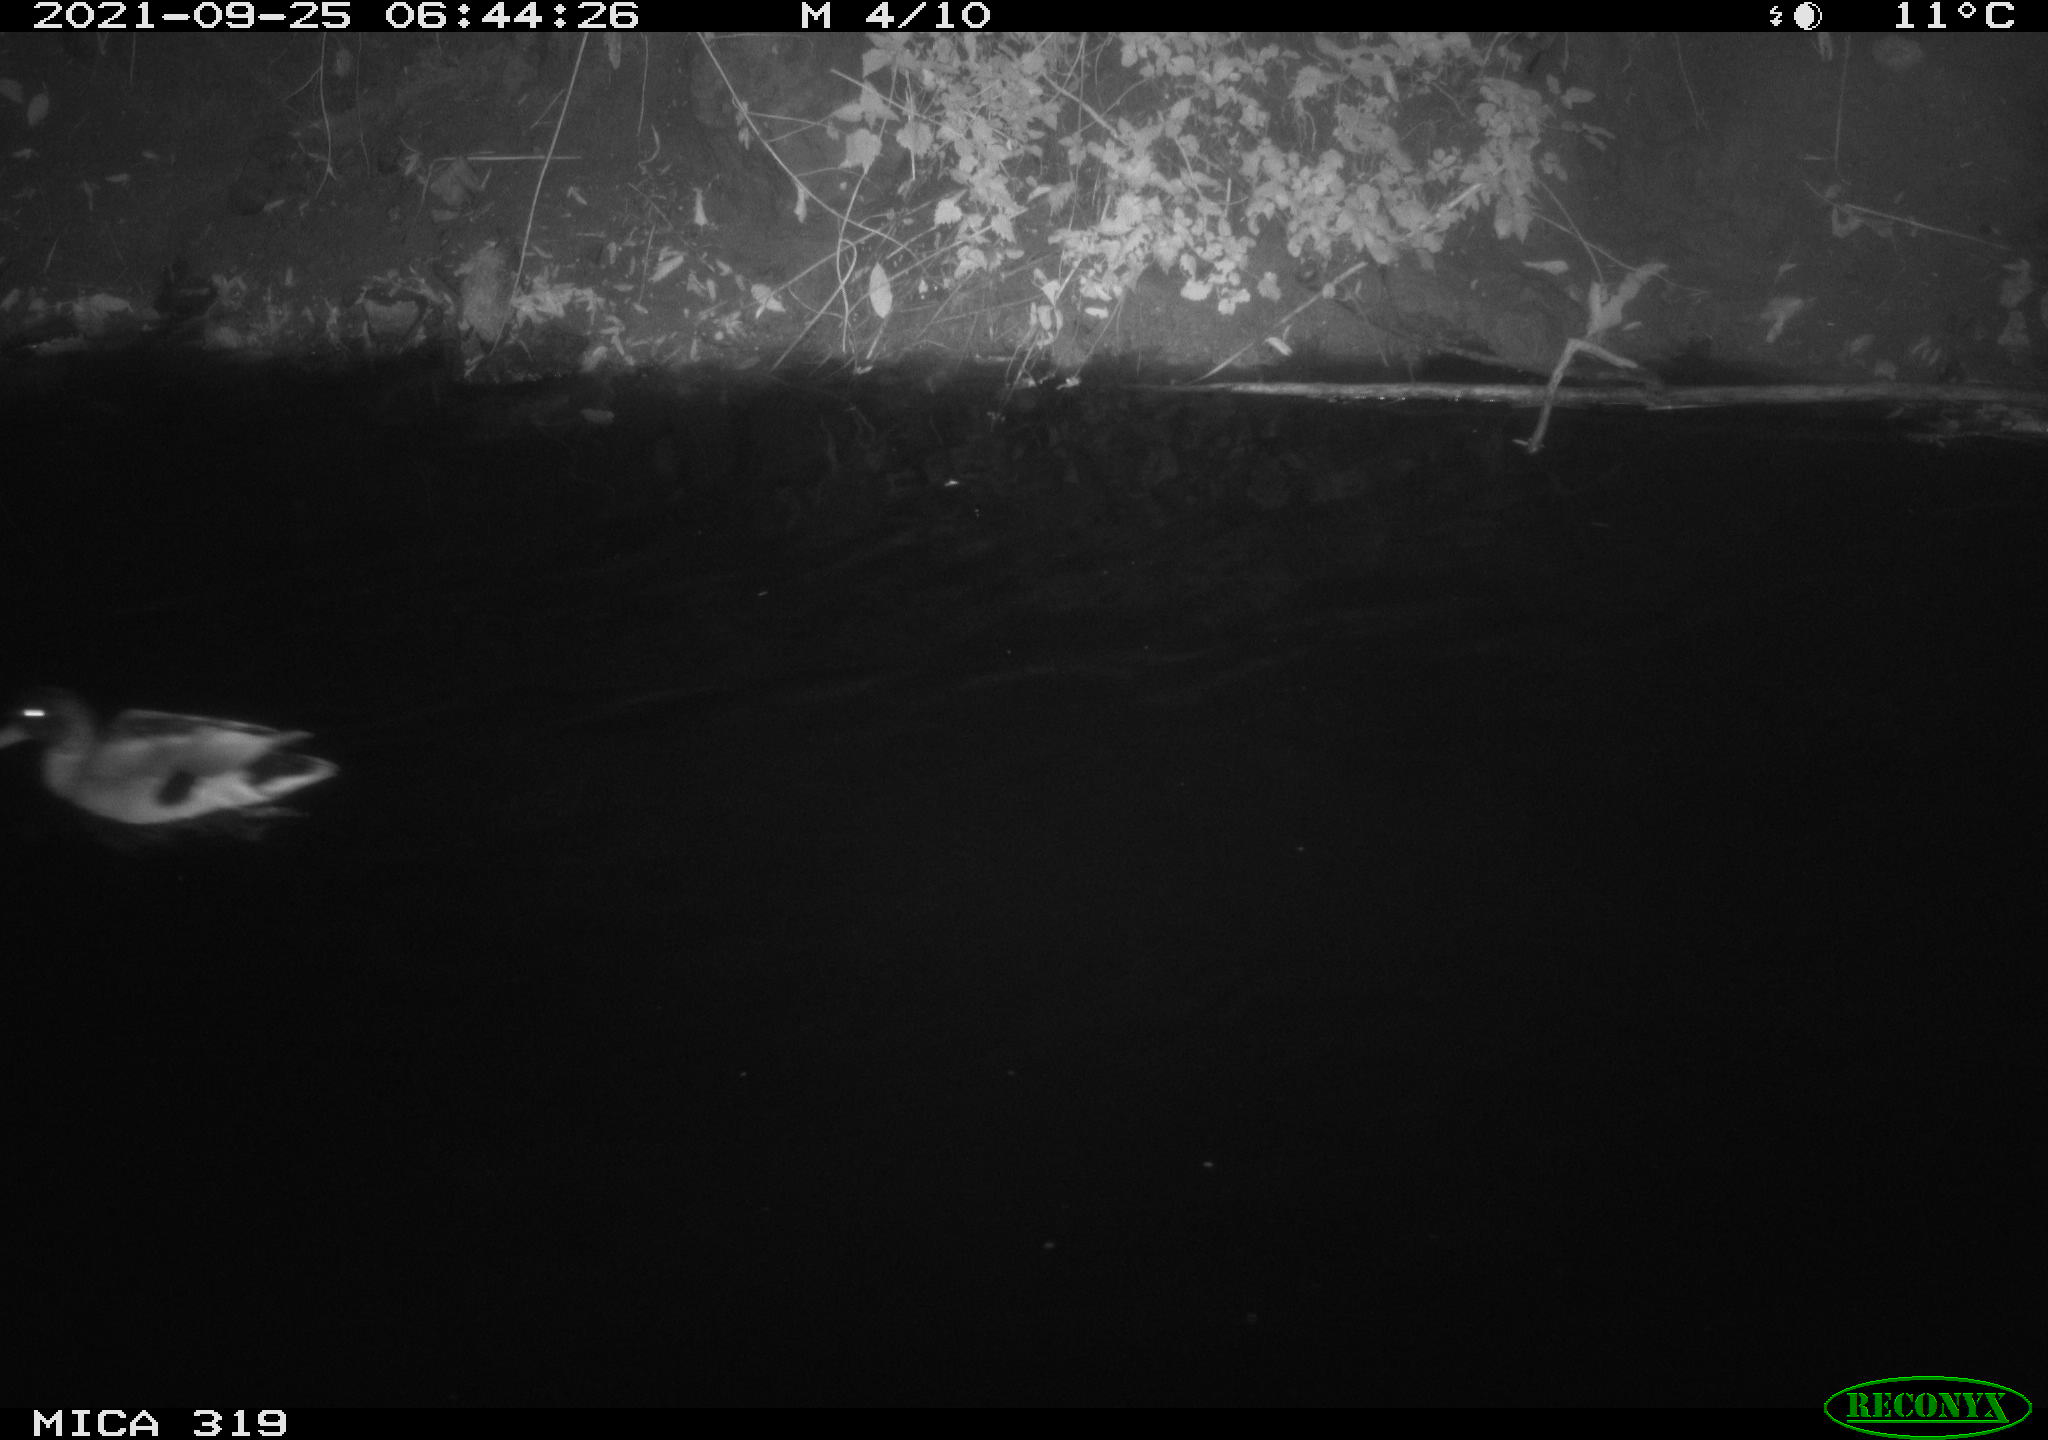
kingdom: Animalia
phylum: Chordata
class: Aves
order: Anseriformes
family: Anatidae
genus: Anas
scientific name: Anas platyrhynchos
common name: Mallard
